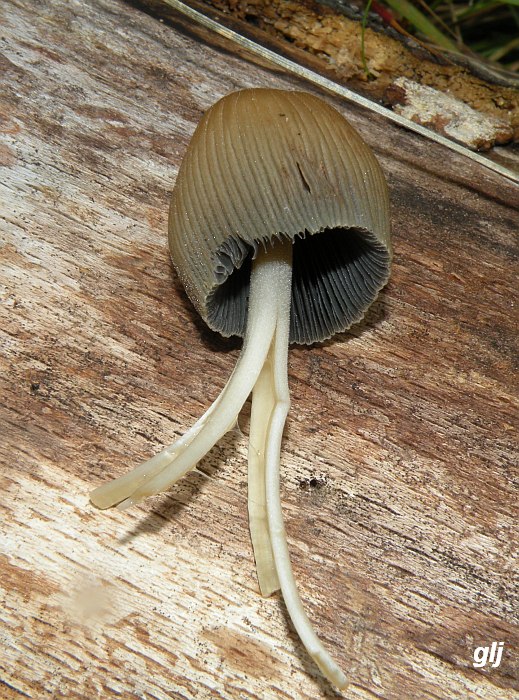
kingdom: Fungi
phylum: Basidiomycota
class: Agaricomycetes
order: Agaricales
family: Psathyrellaceae
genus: Coprinellus
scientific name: Coprinellus micaceus
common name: glimmer-blækhat
